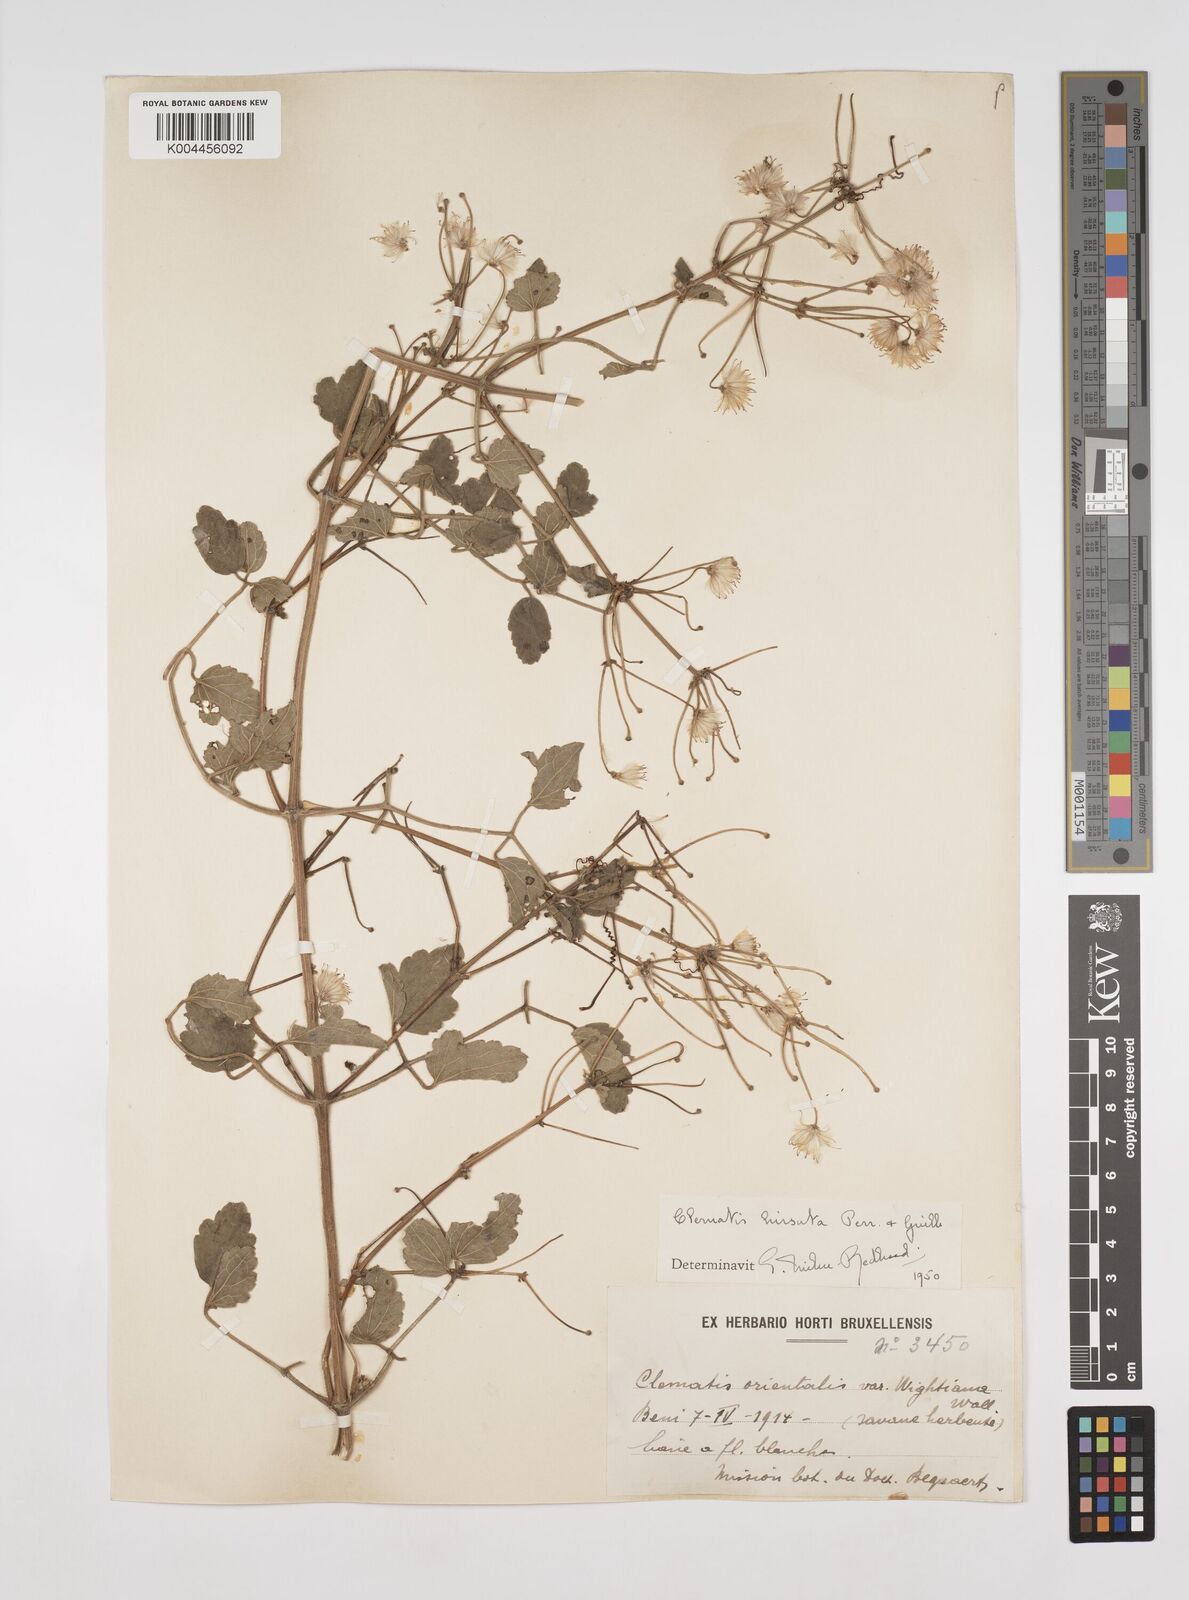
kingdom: Plantae
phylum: Tracheophyta
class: Magnoliopsida
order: Ranunculales
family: Ranunculaceae
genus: Clematis
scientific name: Clematis welwitschii
